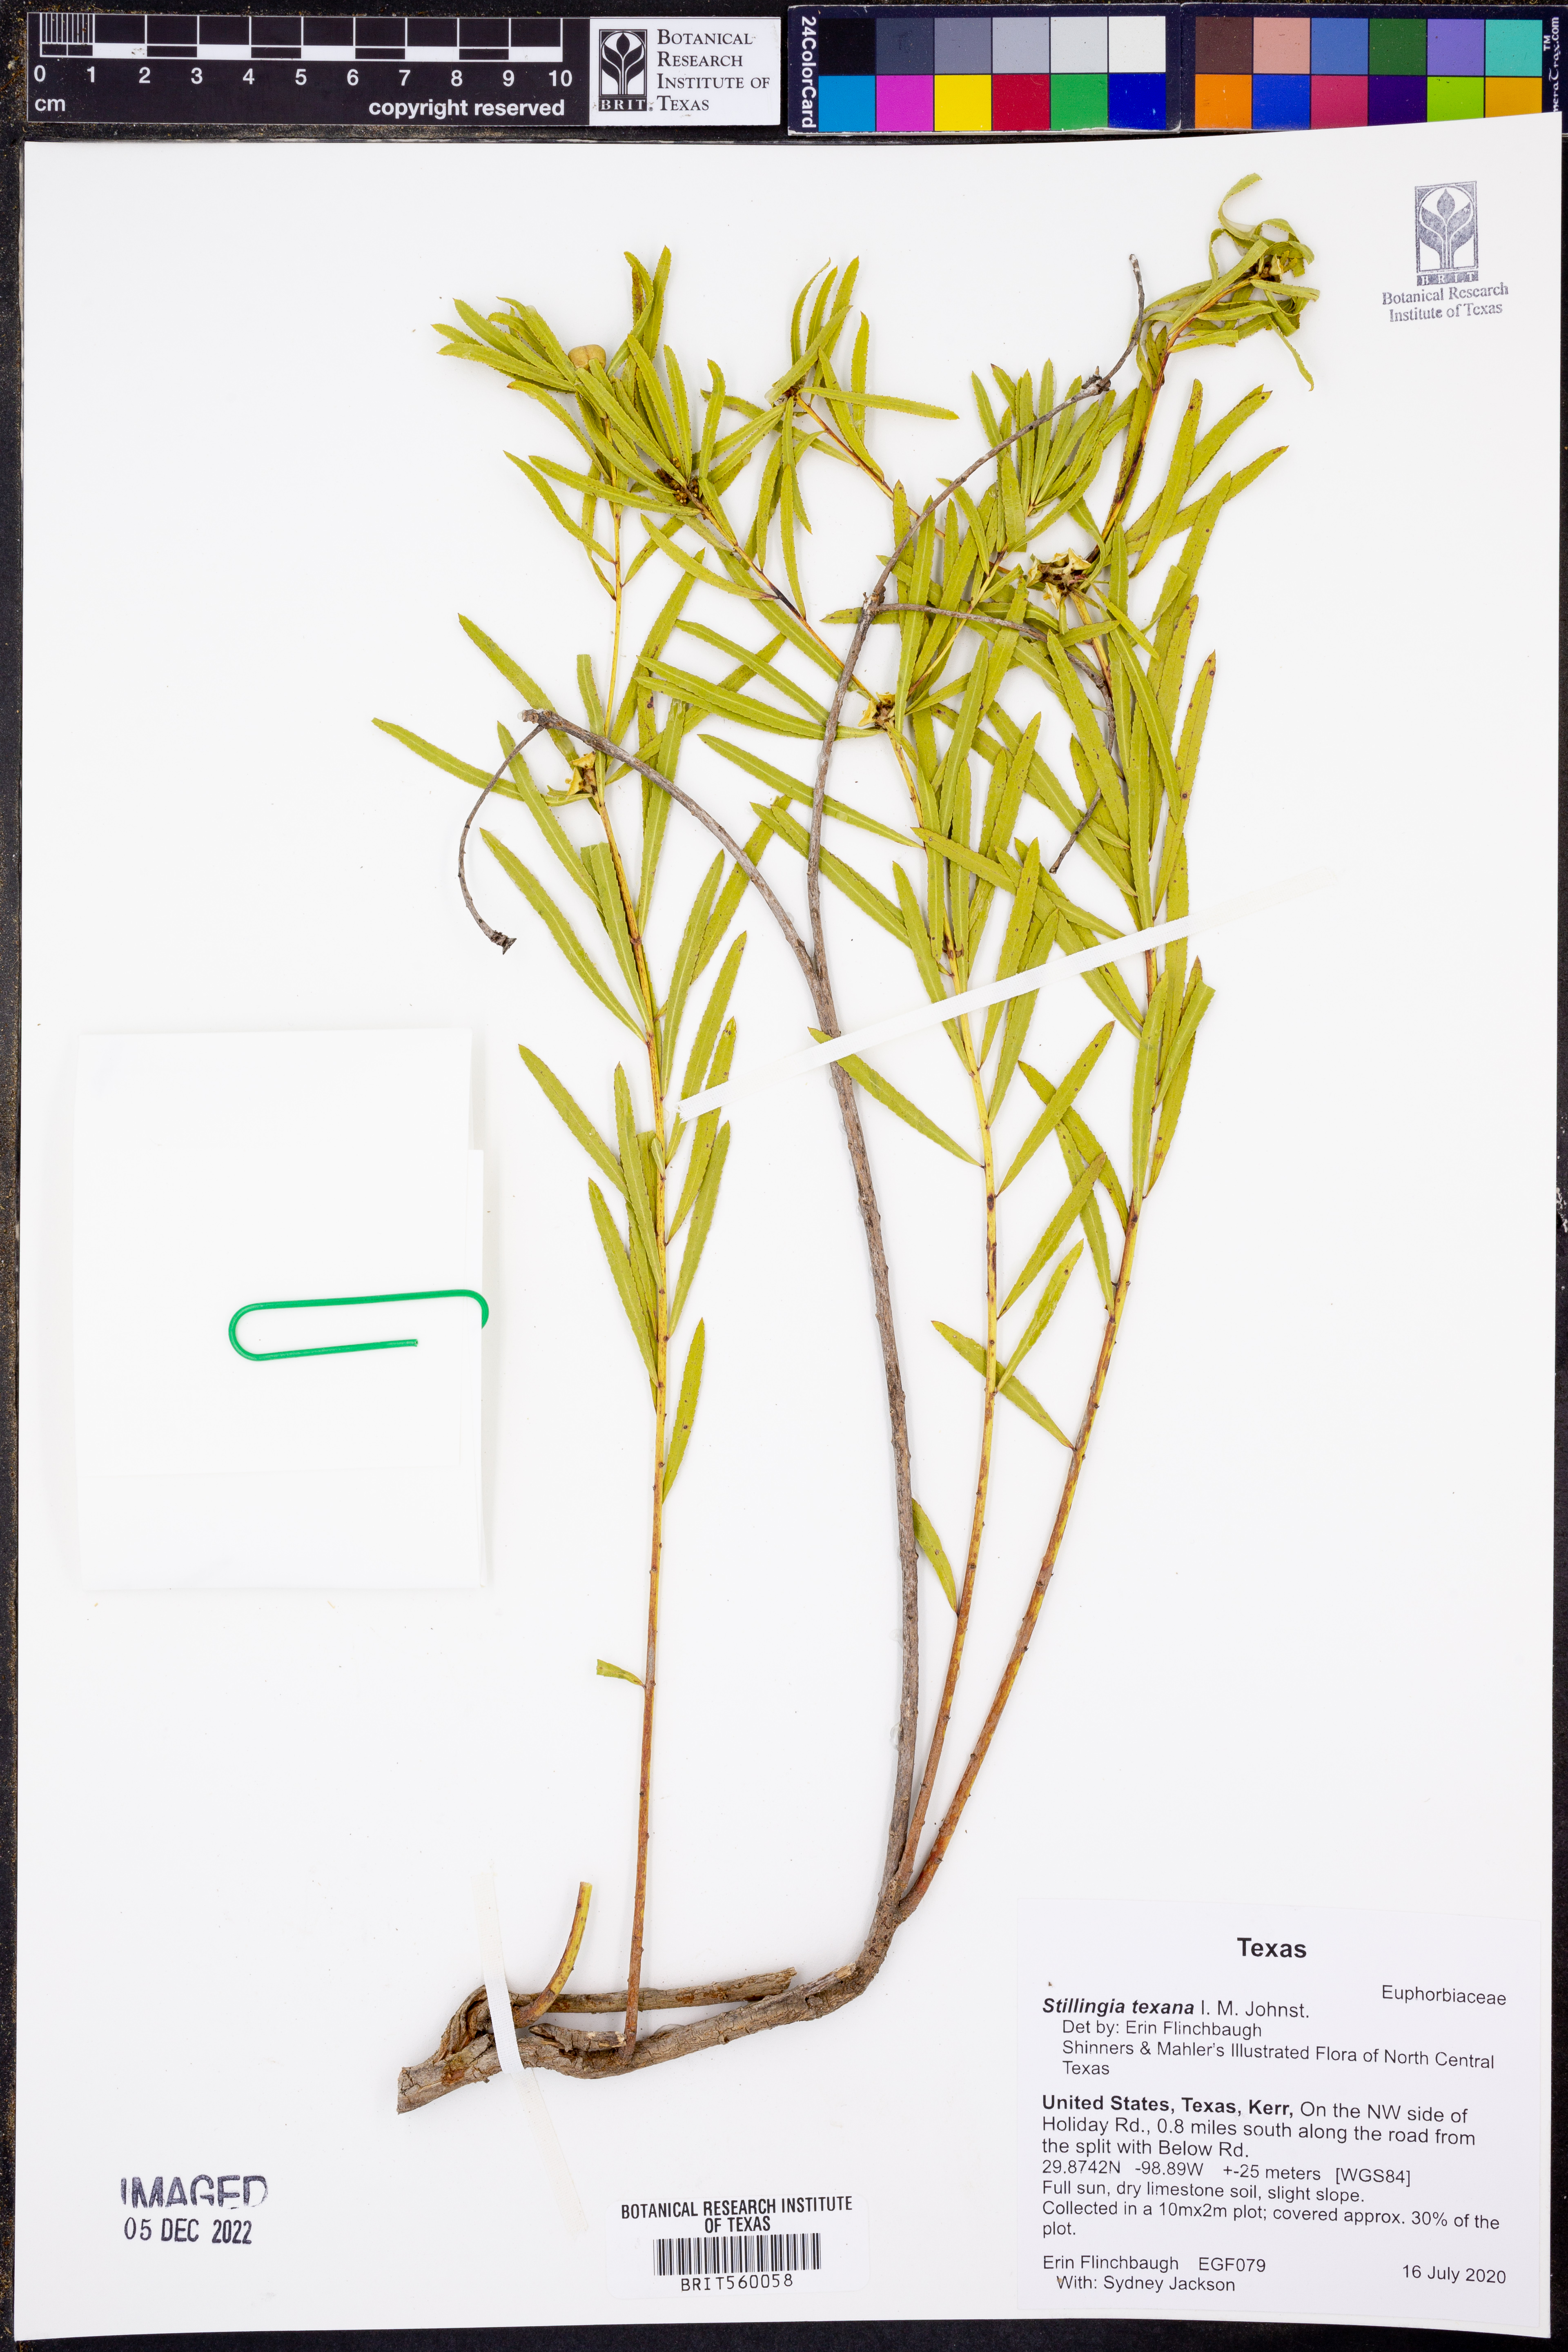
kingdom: Plantae
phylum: Tracheophyta
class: Magnoliopsida
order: Malpighiales
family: Euphorbiaceae
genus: Stillingia
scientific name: Stillingia texana
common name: Texas stillingia
